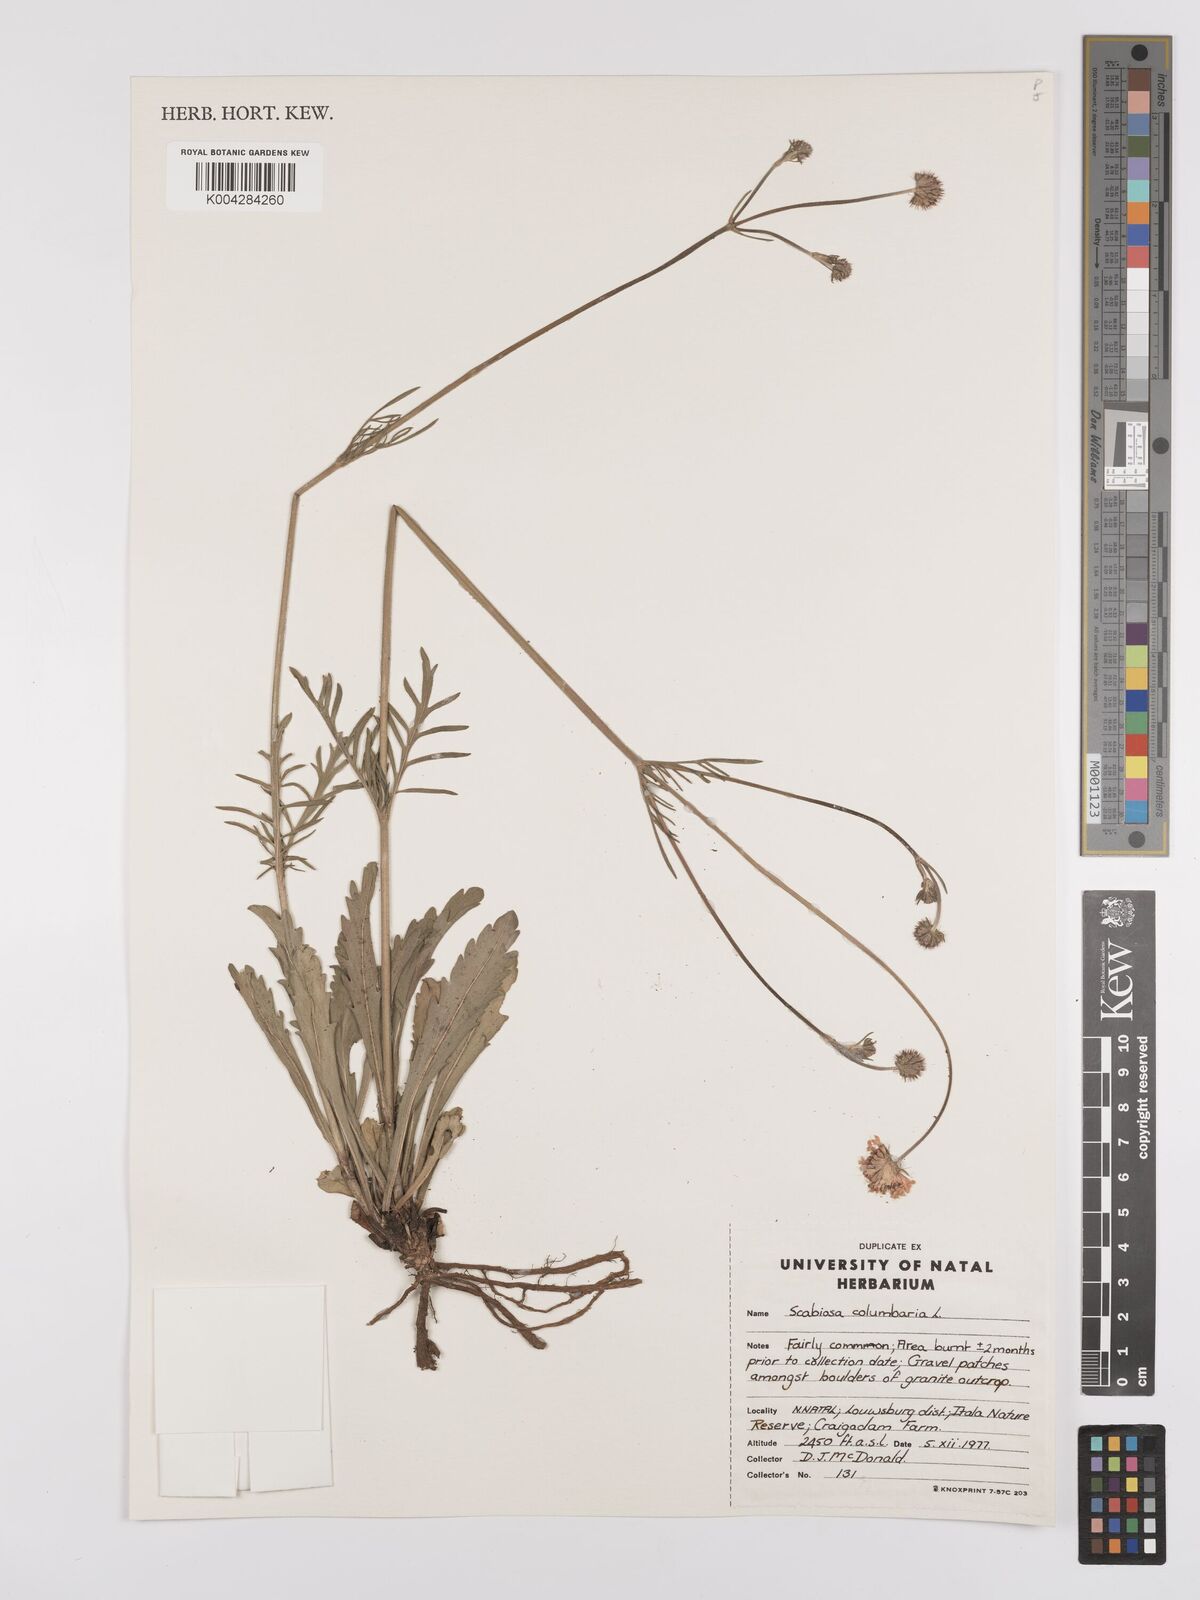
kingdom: Plantae
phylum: Tracheophyta
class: Magnoliopsida
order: Dipsacales
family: Caprifoliaceae
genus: Scabiosa
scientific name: Scabiosa columbaria
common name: Small scabious
